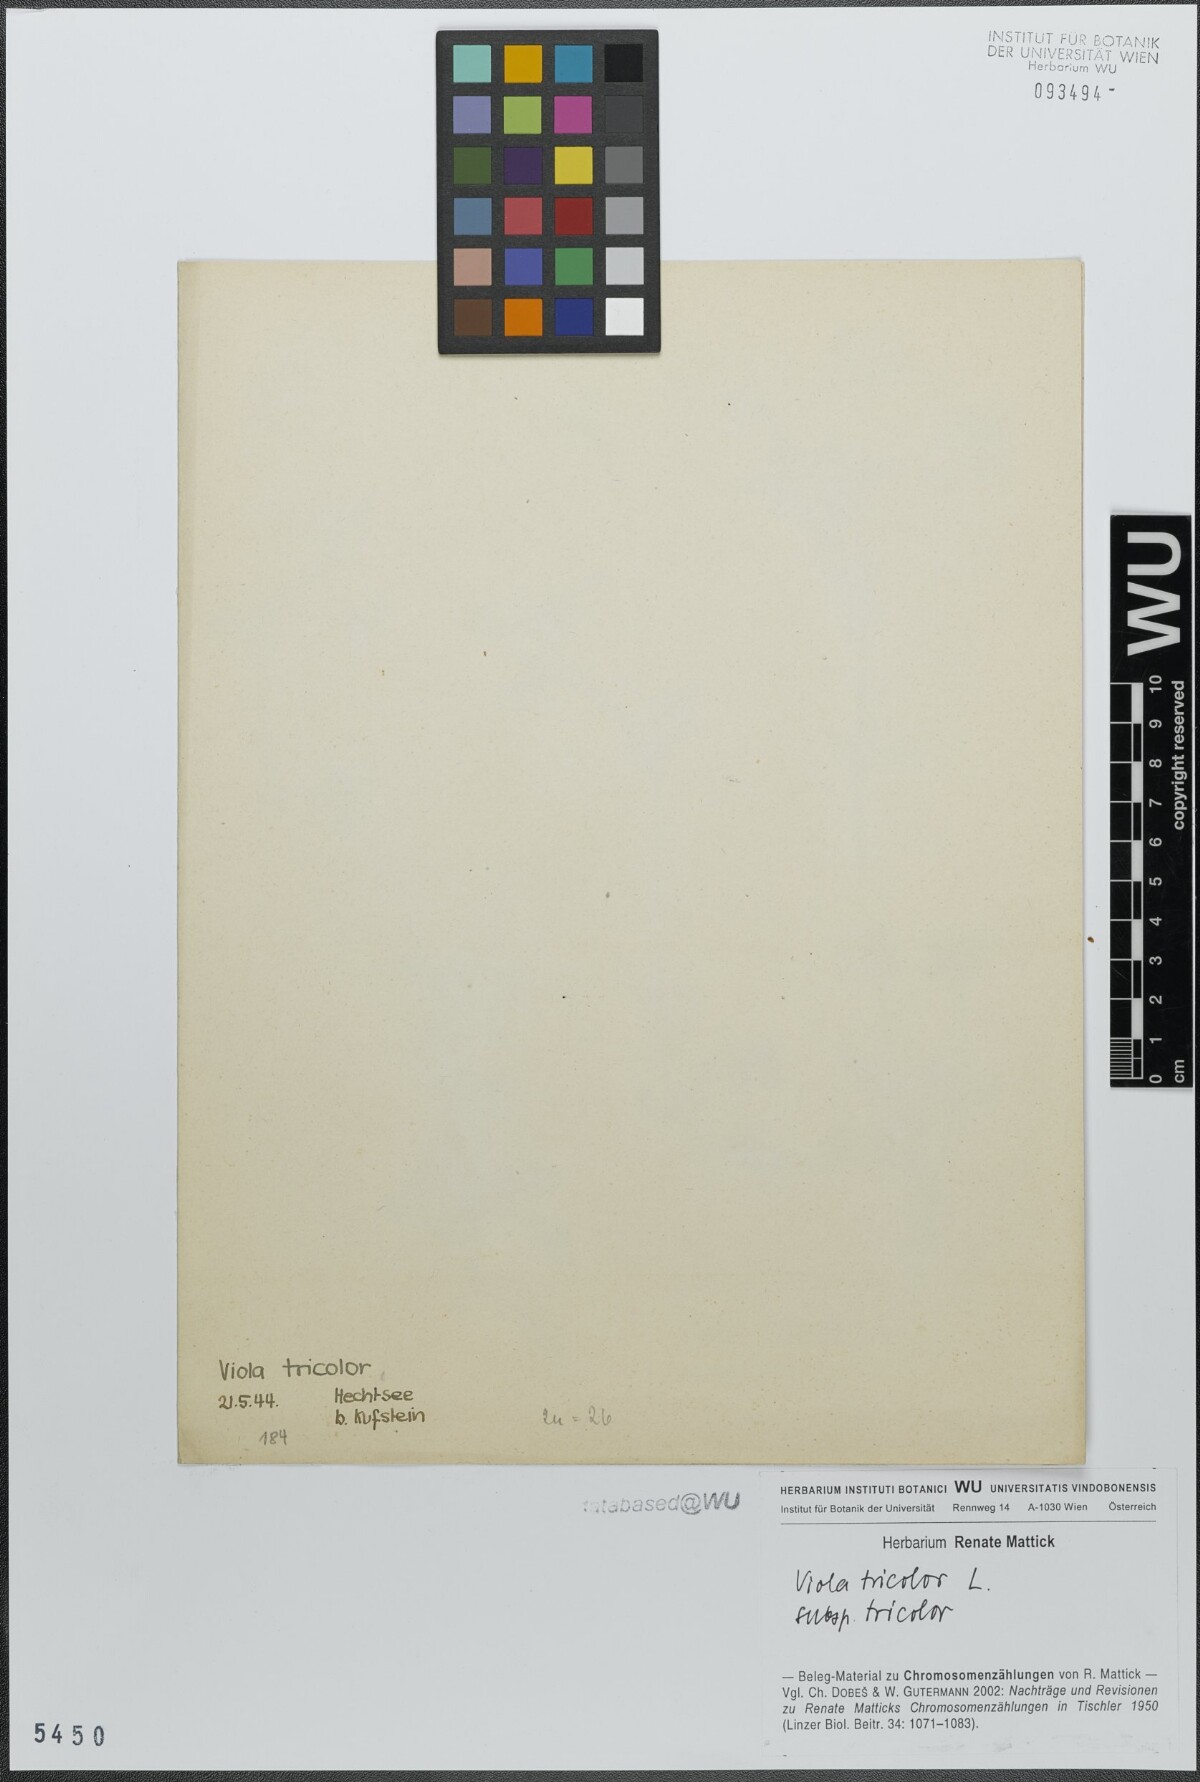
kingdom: Plantae
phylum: Tracheophyta
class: Magnoliopsida
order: Malpighiales
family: Violaceae
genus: Viola
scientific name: Viola tricolor
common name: Pansy
